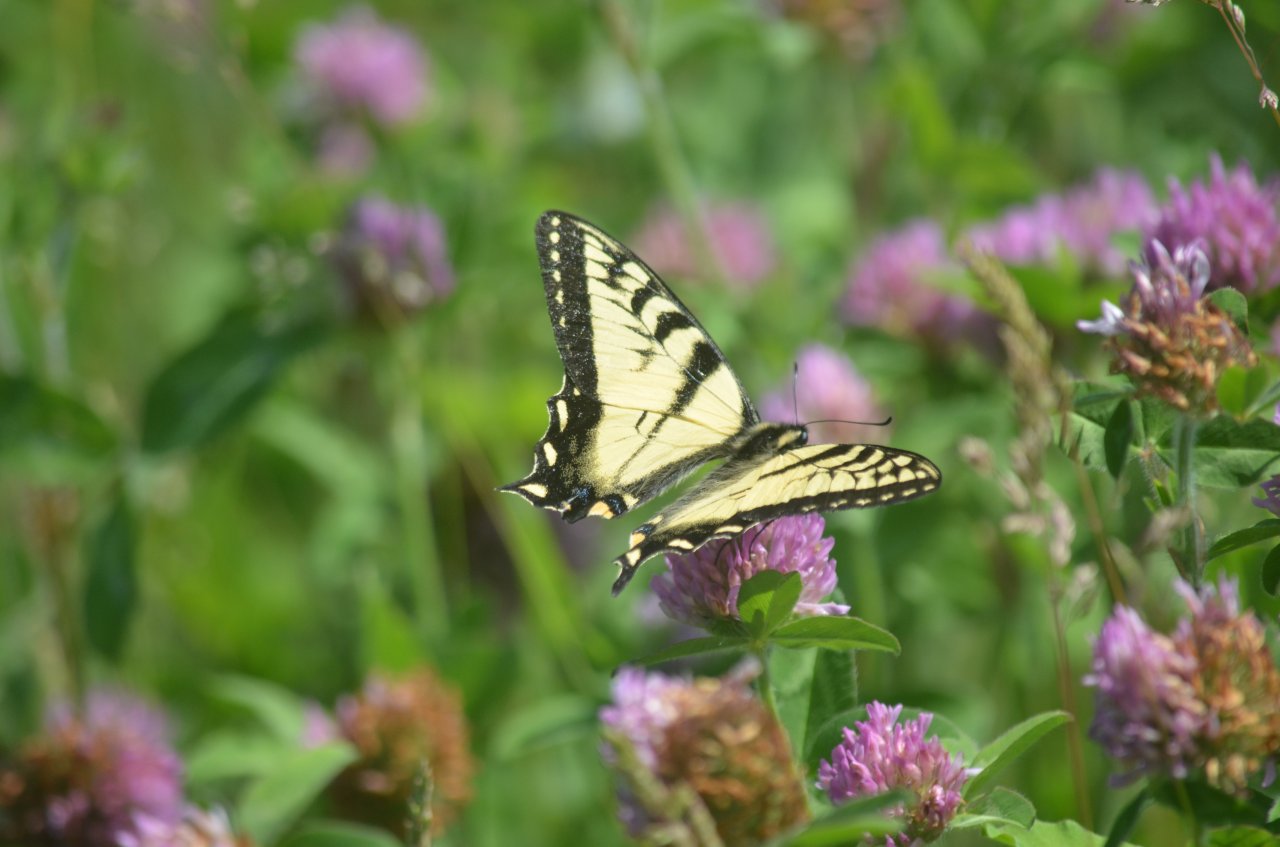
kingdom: Animalia
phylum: Arthropoda
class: Insecta
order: Lepidoptera
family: Papilionidae
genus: Pterourus
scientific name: Pterourus canadensis
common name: Canadian Tiger Swallowtail
